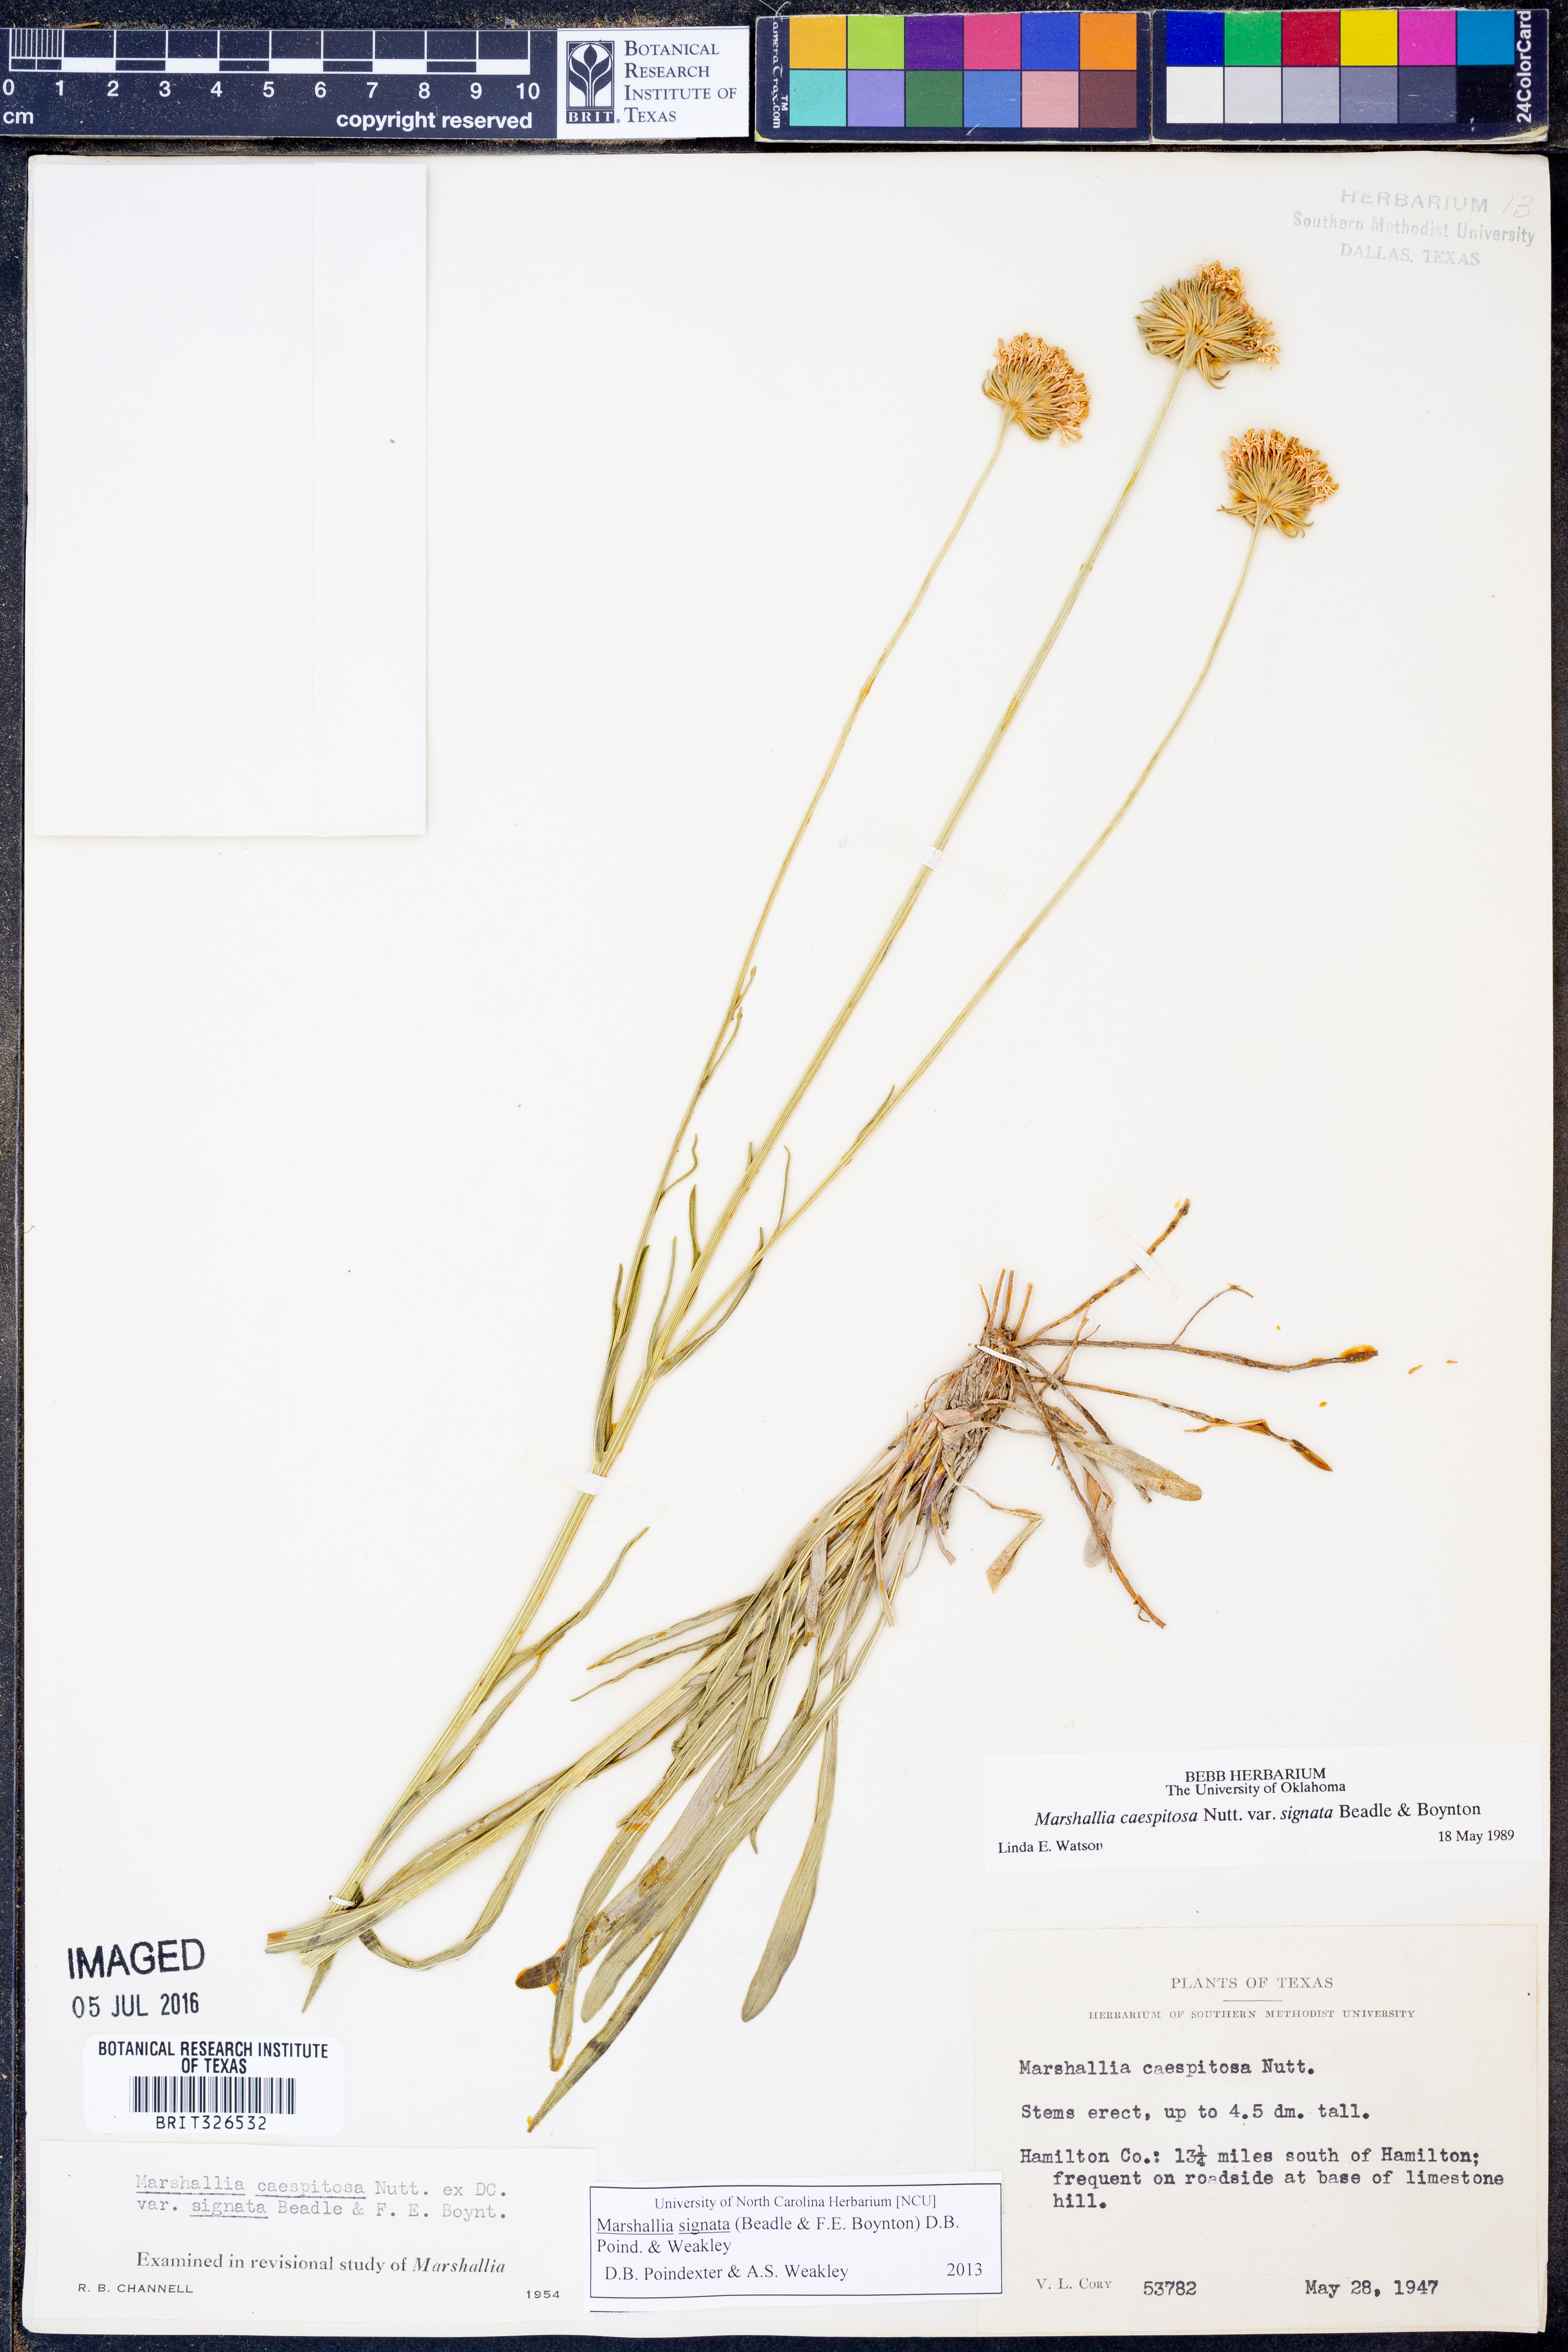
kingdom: Plantae
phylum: Tracheophyta
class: Magnoliopsida
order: Asterales
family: Asteraceae
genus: Marshallia
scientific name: Marshallia
